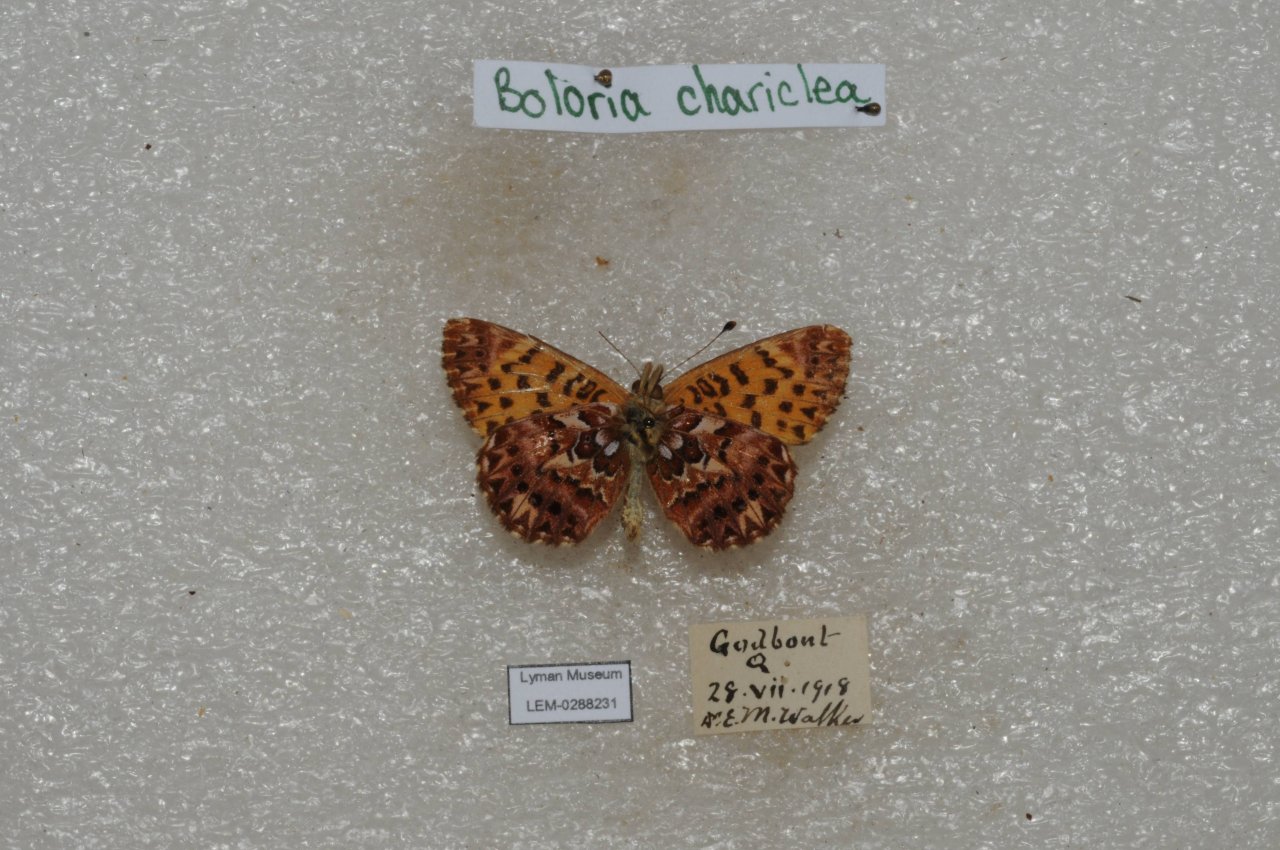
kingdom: Animalia
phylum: Arthropoda
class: Insecta
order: Lepidoptera
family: Nymphalidae
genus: Boloria
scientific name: Boloria chariclea
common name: Arctic Fritillary
